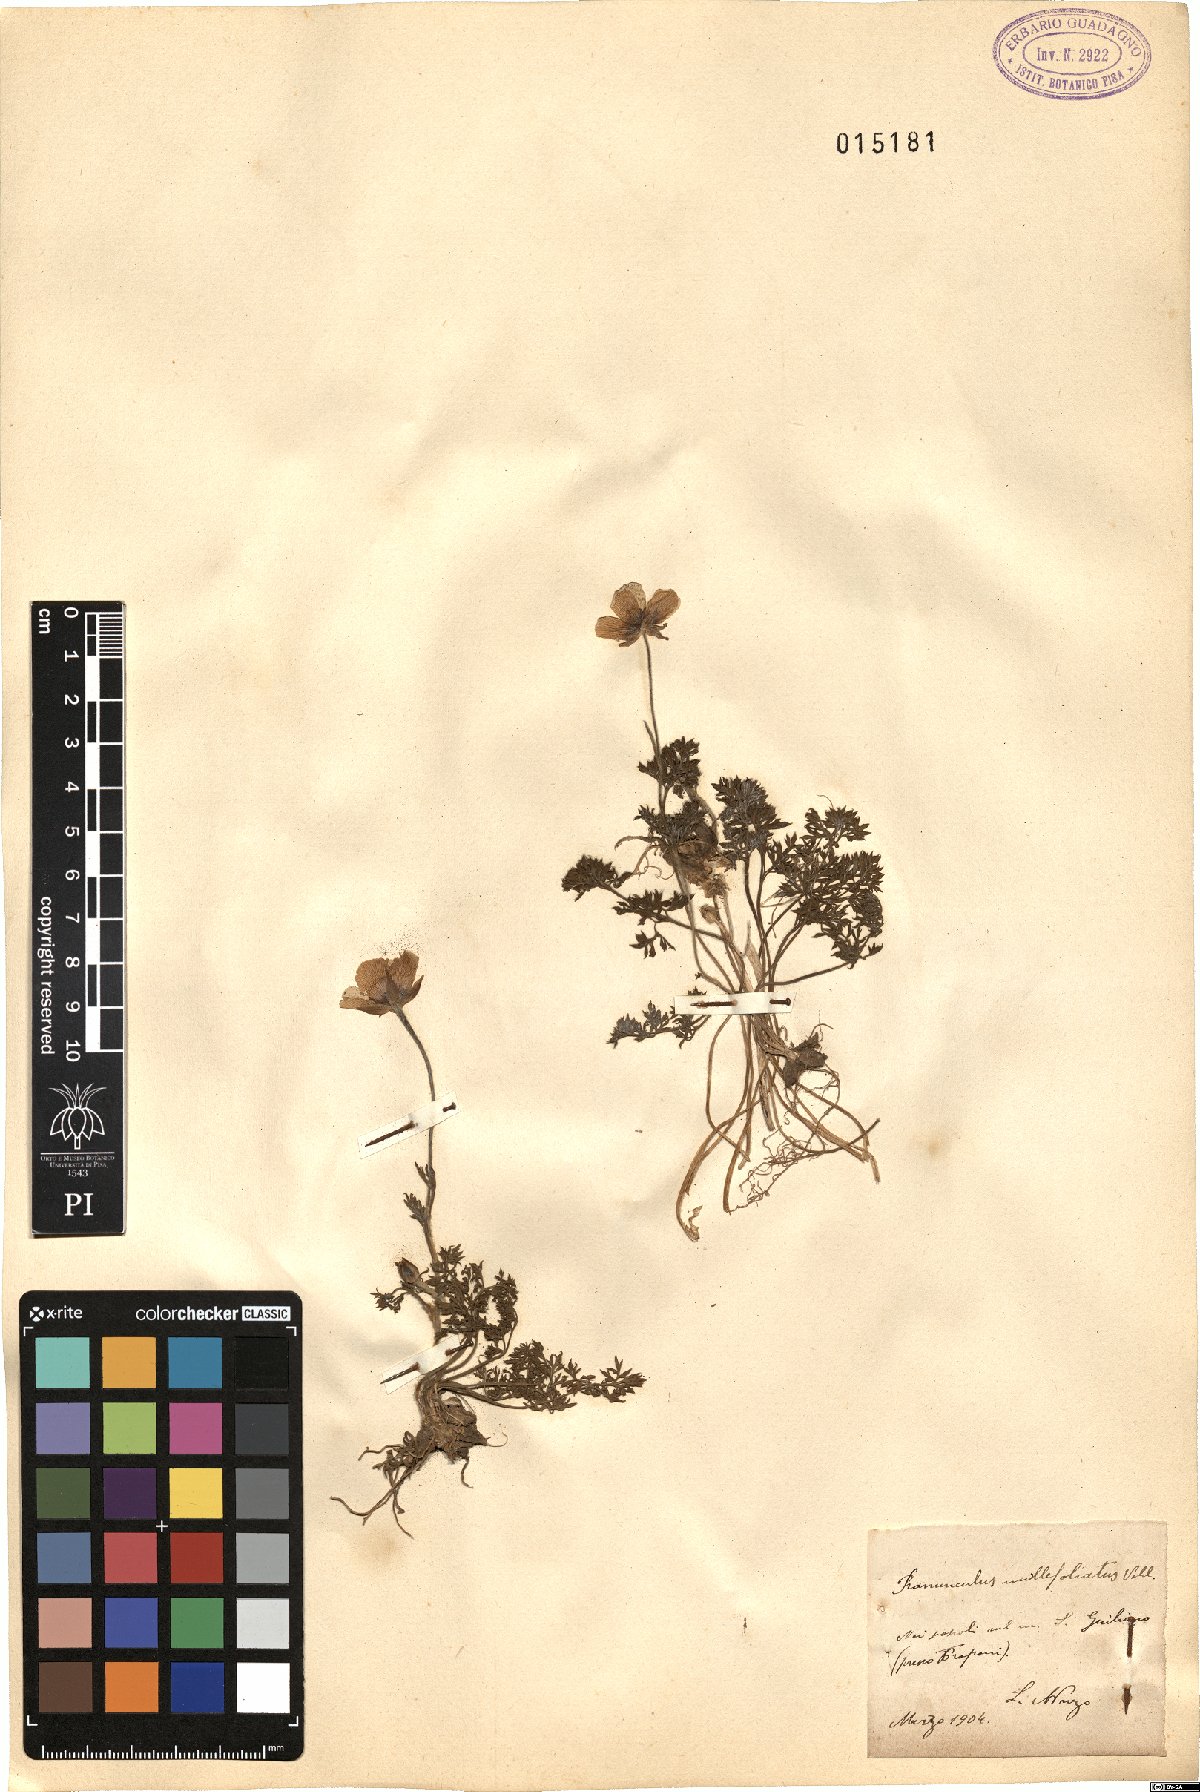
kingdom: Plantae
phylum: Tracheophyta
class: Magnoliopsida
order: Ranunculales
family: Ranunculaceae
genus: Ranunculus
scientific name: Ranunculus millefoliatus
